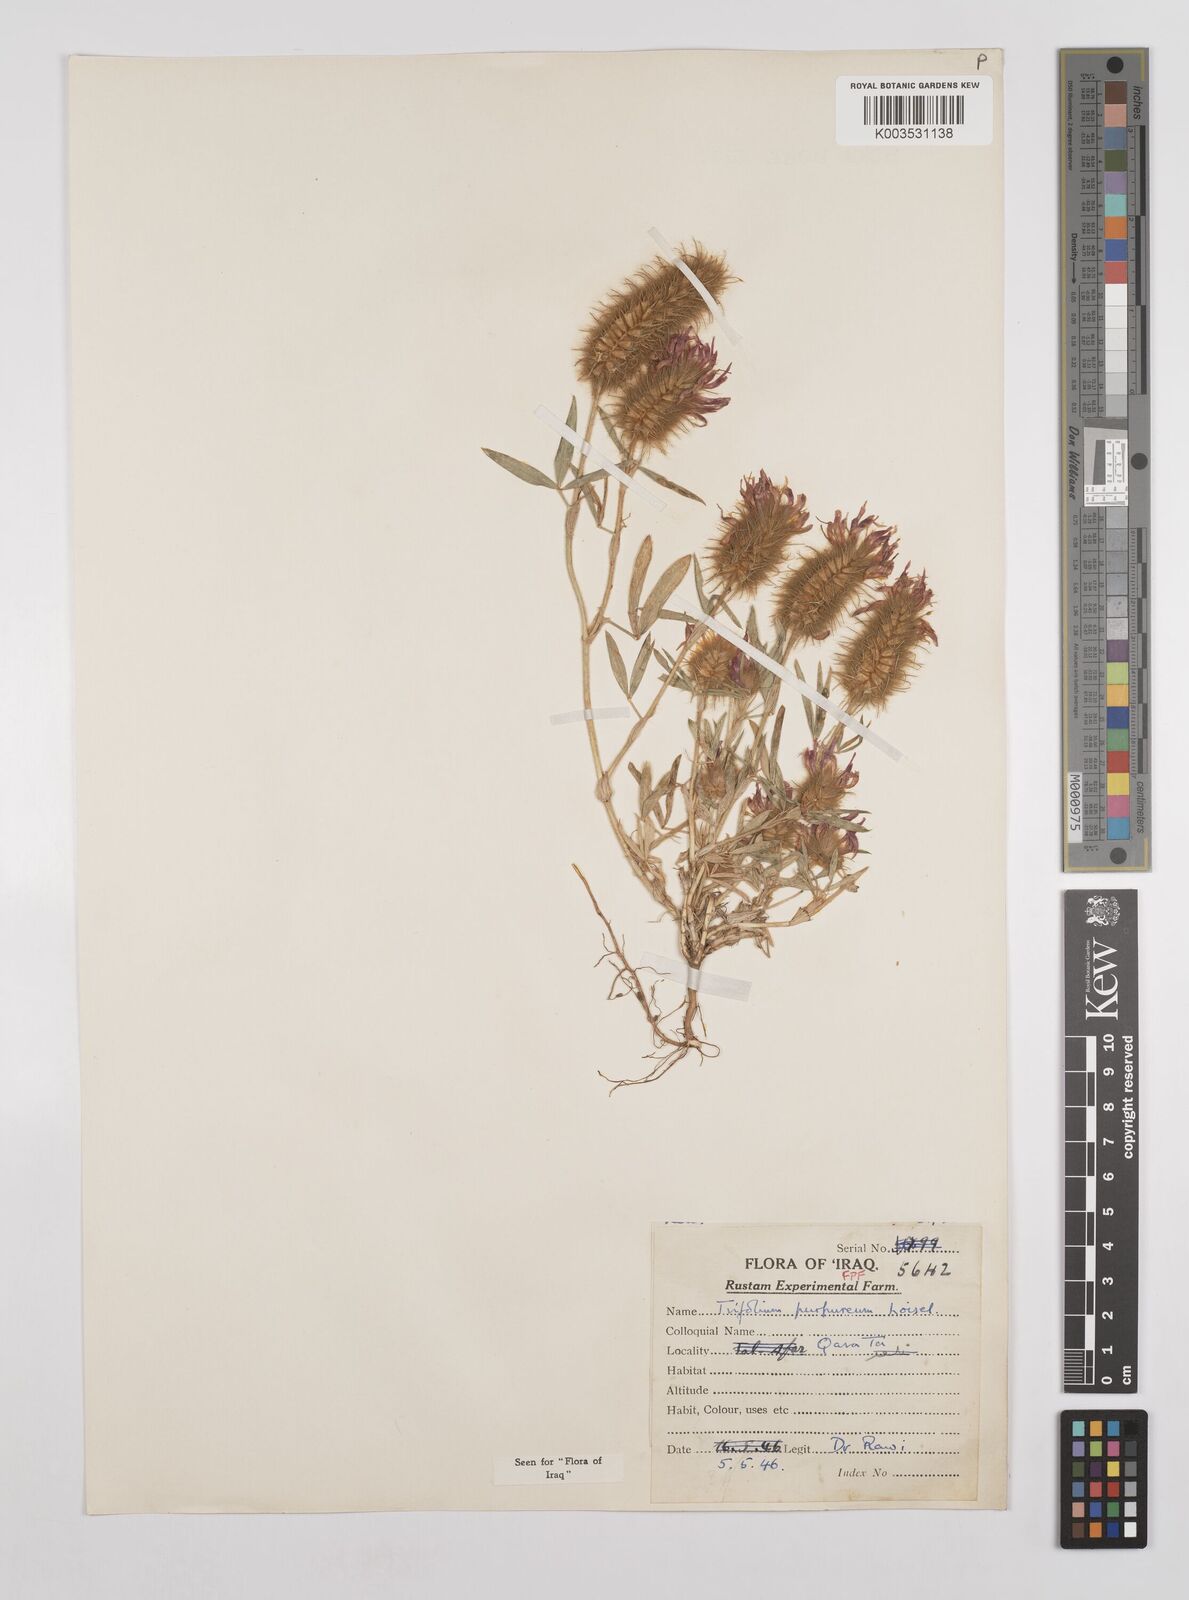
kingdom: Plantae
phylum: Tracheophyta
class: Magnoliopsida
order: Fabales
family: Fabaceae
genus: Trifolium
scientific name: Trifolium purpureum
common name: Purple clover
